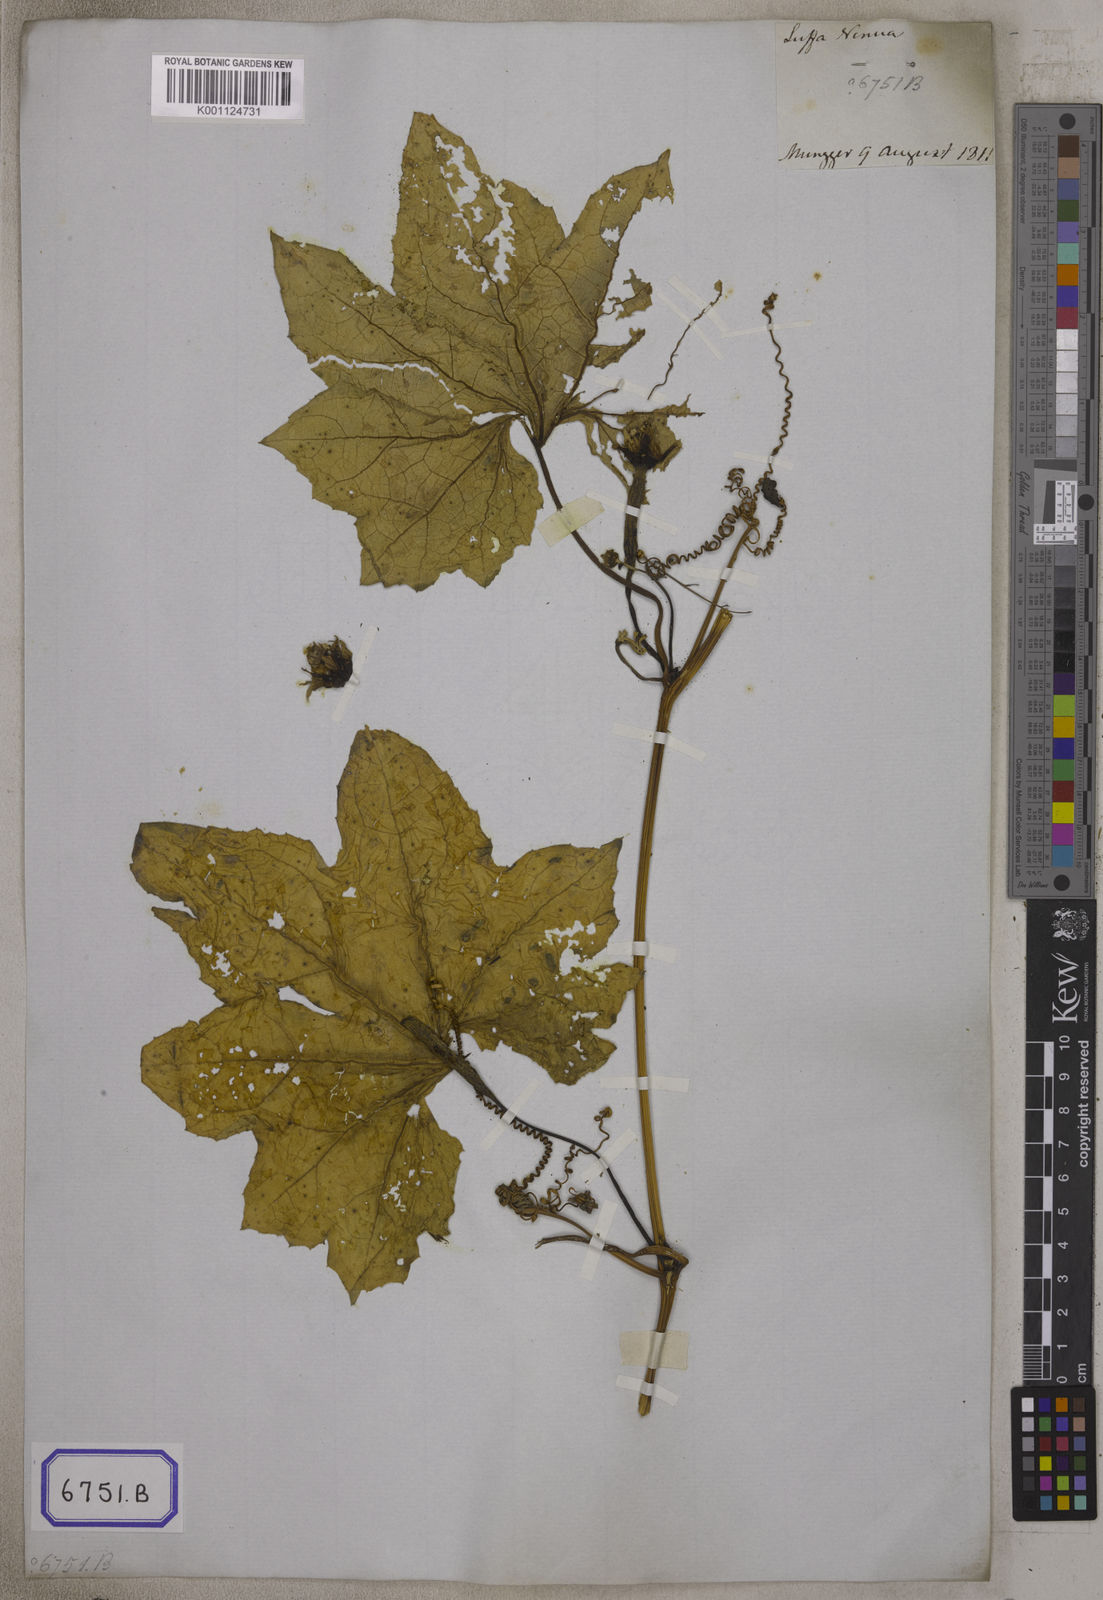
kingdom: Plantae
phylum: Tracheophyta
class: Magnoliopsida
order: Cucurbitales
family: Cucurbitaceae
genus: Luffa
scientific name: Luffa aegyptiaca
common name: Sponge gourd
